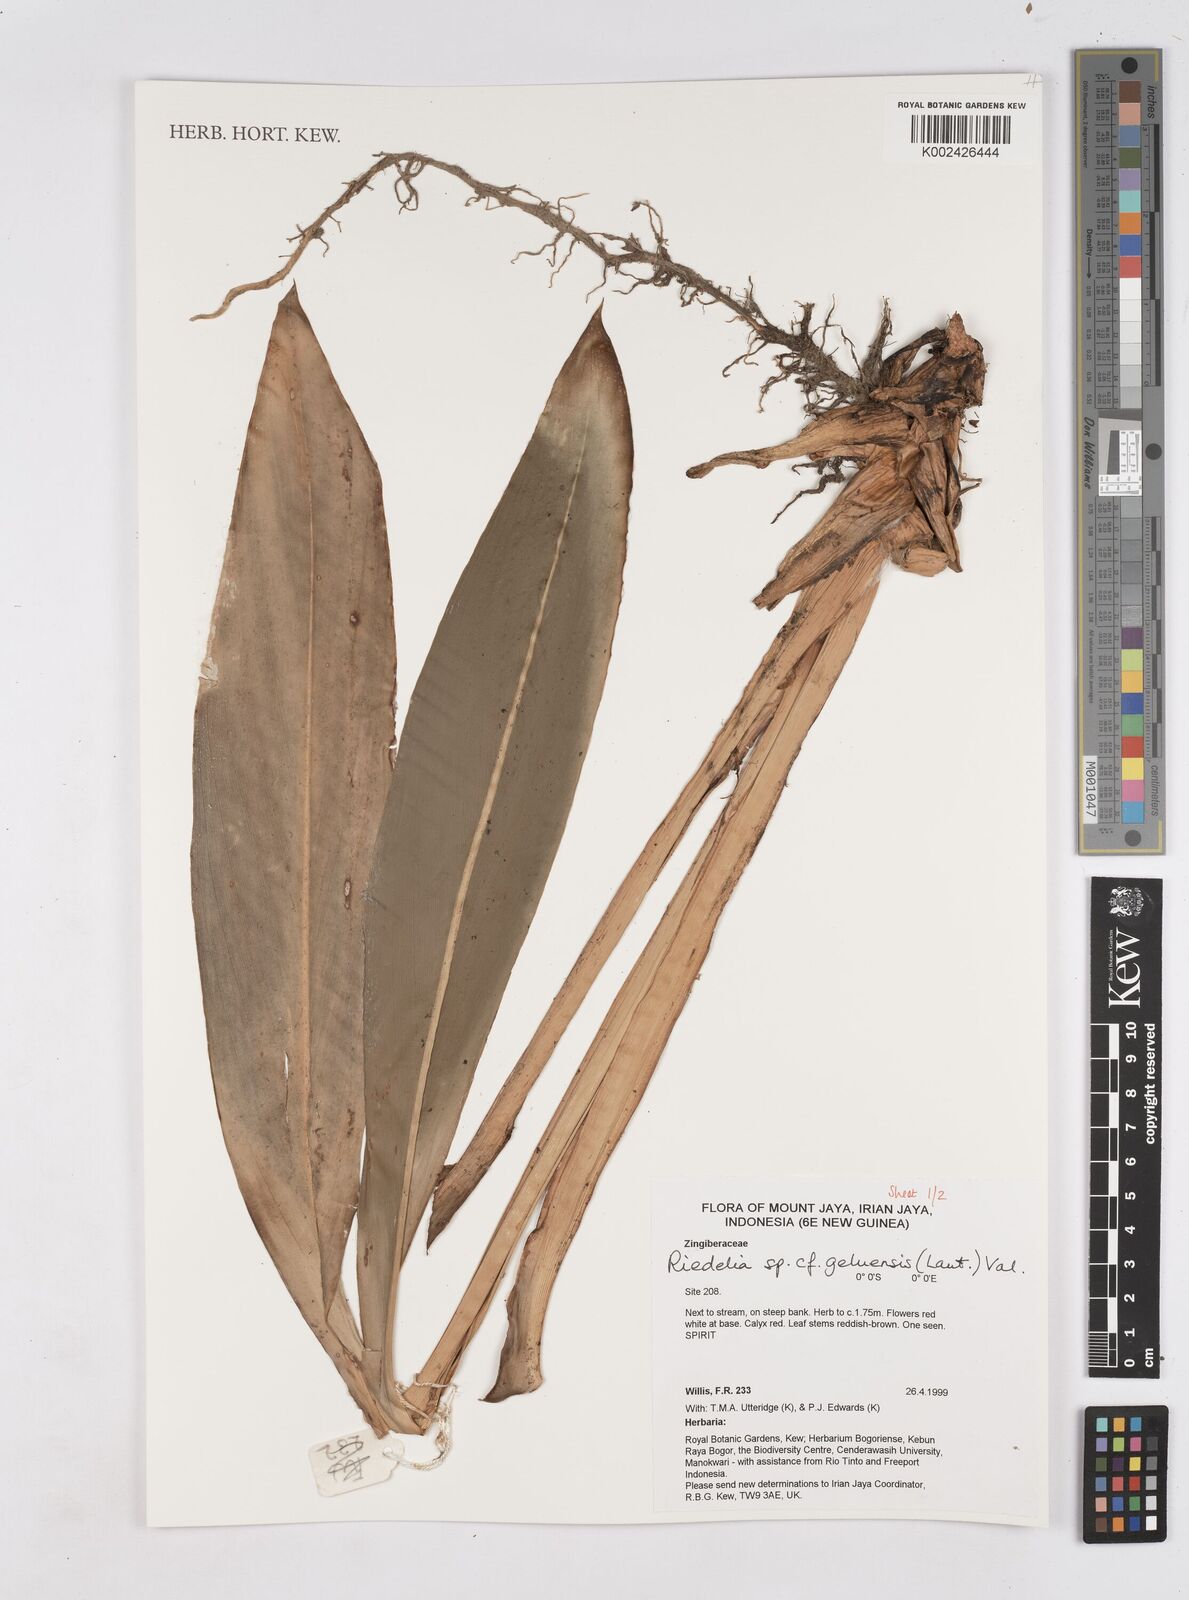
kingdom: Plantae
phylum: Tracheophyta
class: Liliopsida
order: Zingiberales
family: Zingiberaceae
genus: Riedelia
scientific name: Riedelia geluensis
